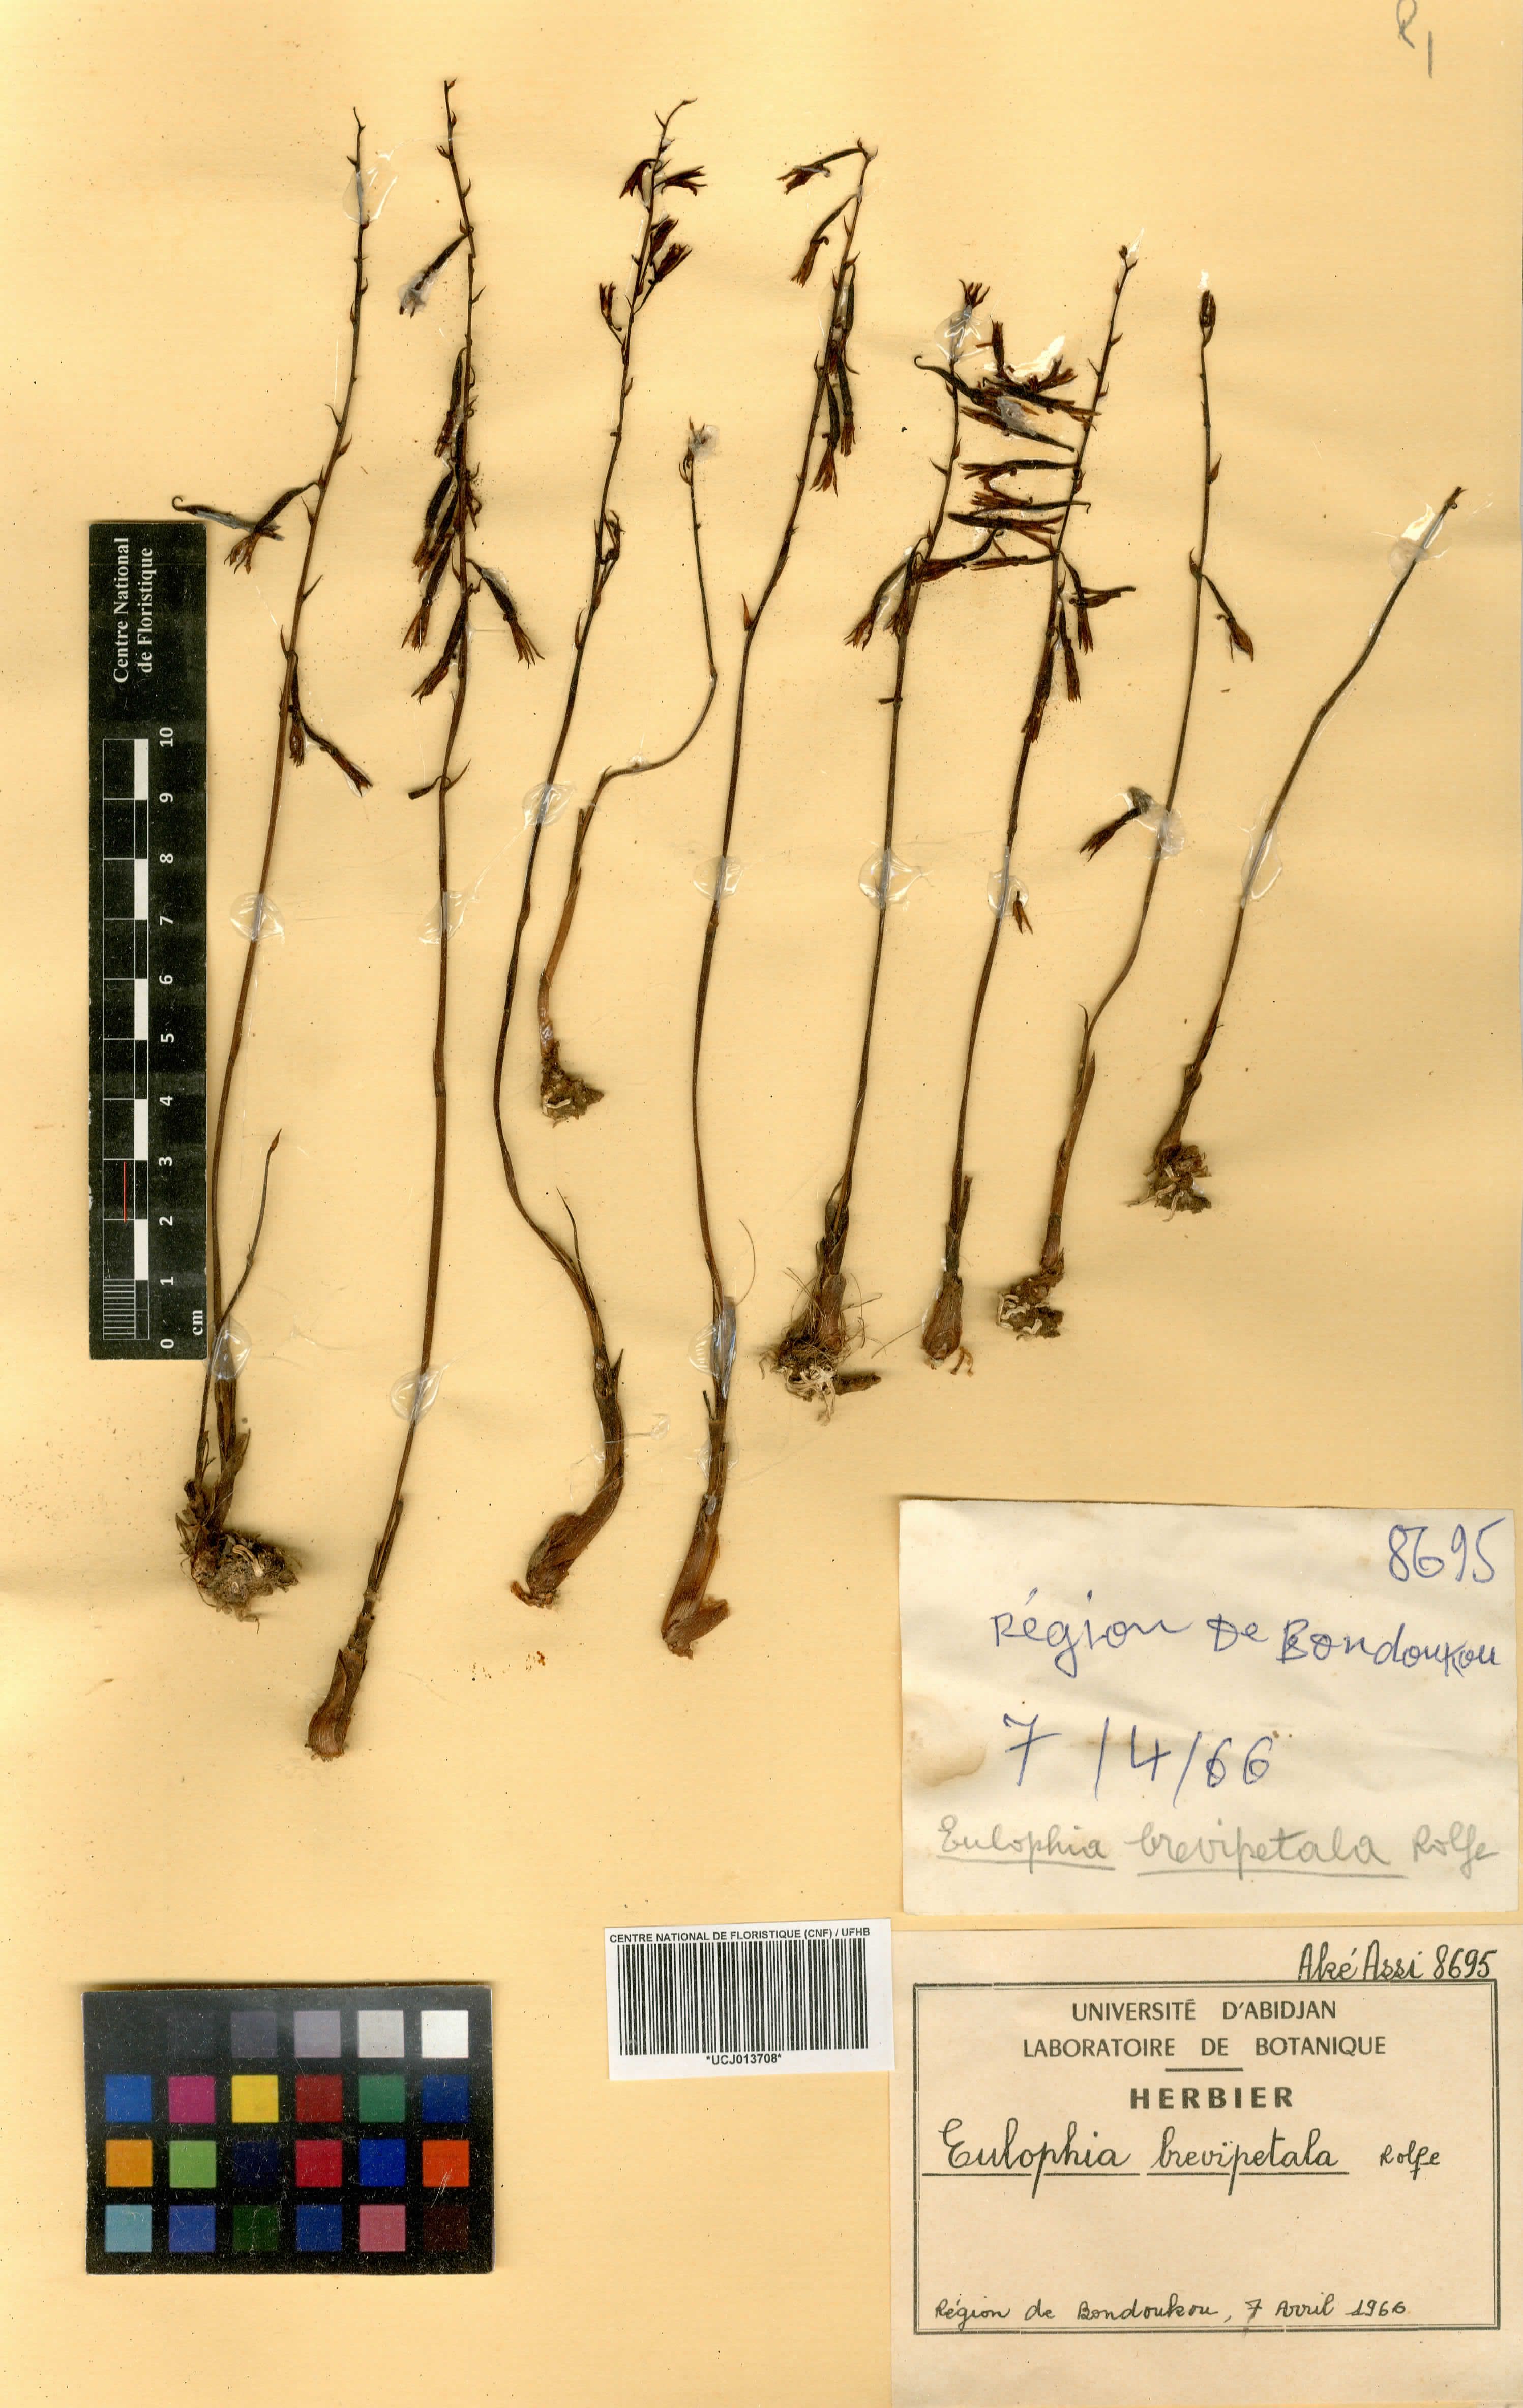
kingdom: Plantae
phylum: Tracheophyta
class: Liliopsida
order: Asparagales
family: Orchidaceae
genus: Eulophia
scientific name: Eulophia monile
